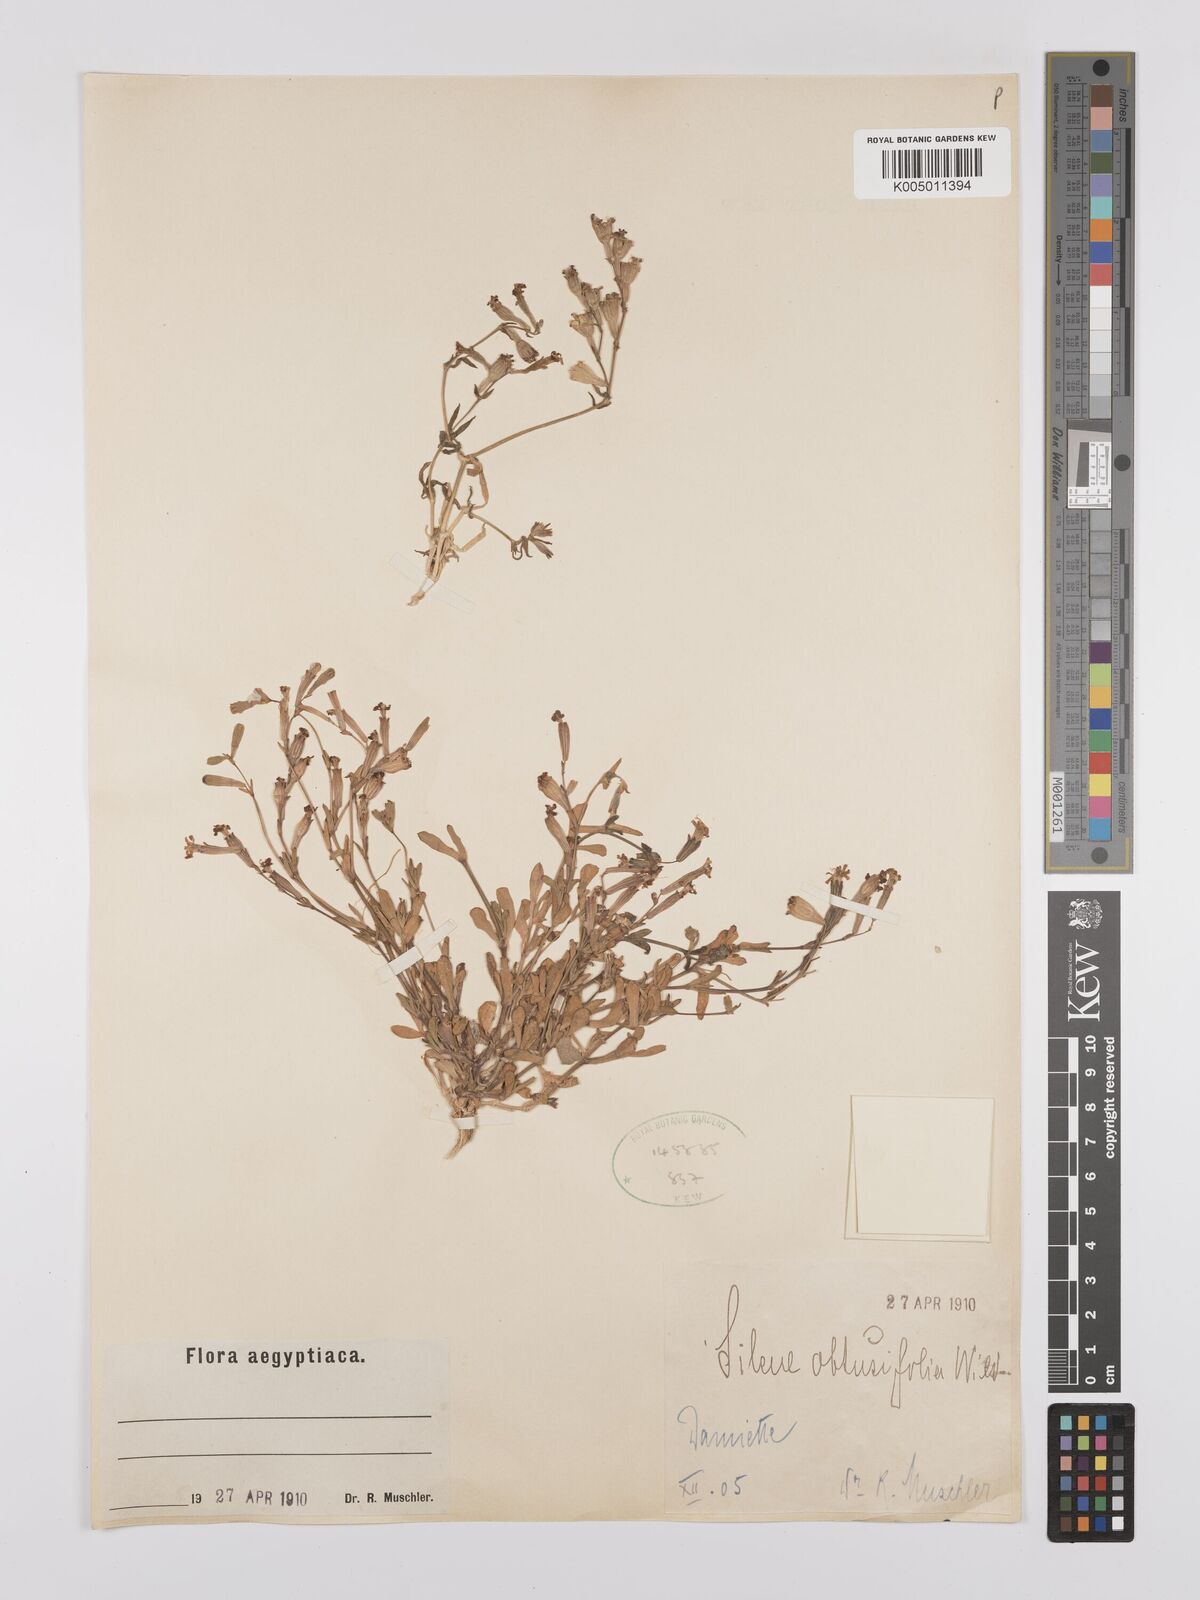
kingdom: Plantae
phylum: Tracheophyta
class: Magnoliopsida
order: Caryophyllales
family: Caryophyllaceae
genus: Silene
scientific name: Silene obtusifolia
